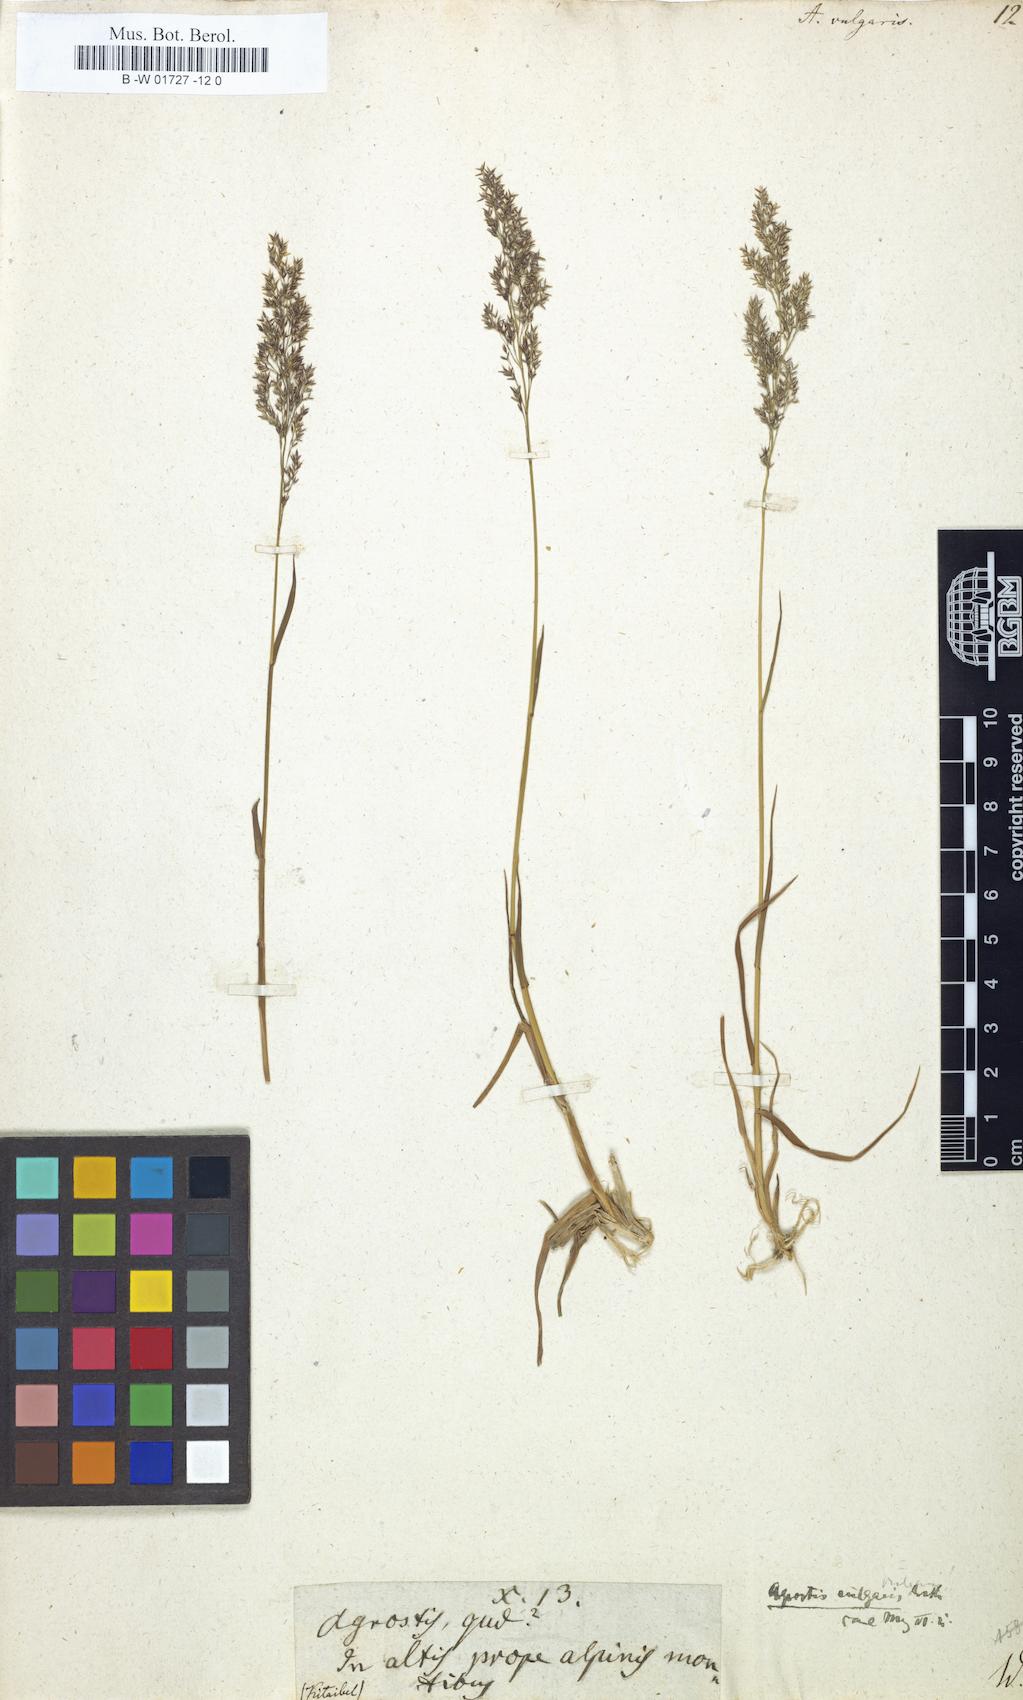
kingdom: Plantae
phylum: Tracheophyta
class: Liliopsida
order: Poales
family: Poaceae
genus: Agrostis
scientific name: Agrostis capillaris
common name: Colonial bentgrass
